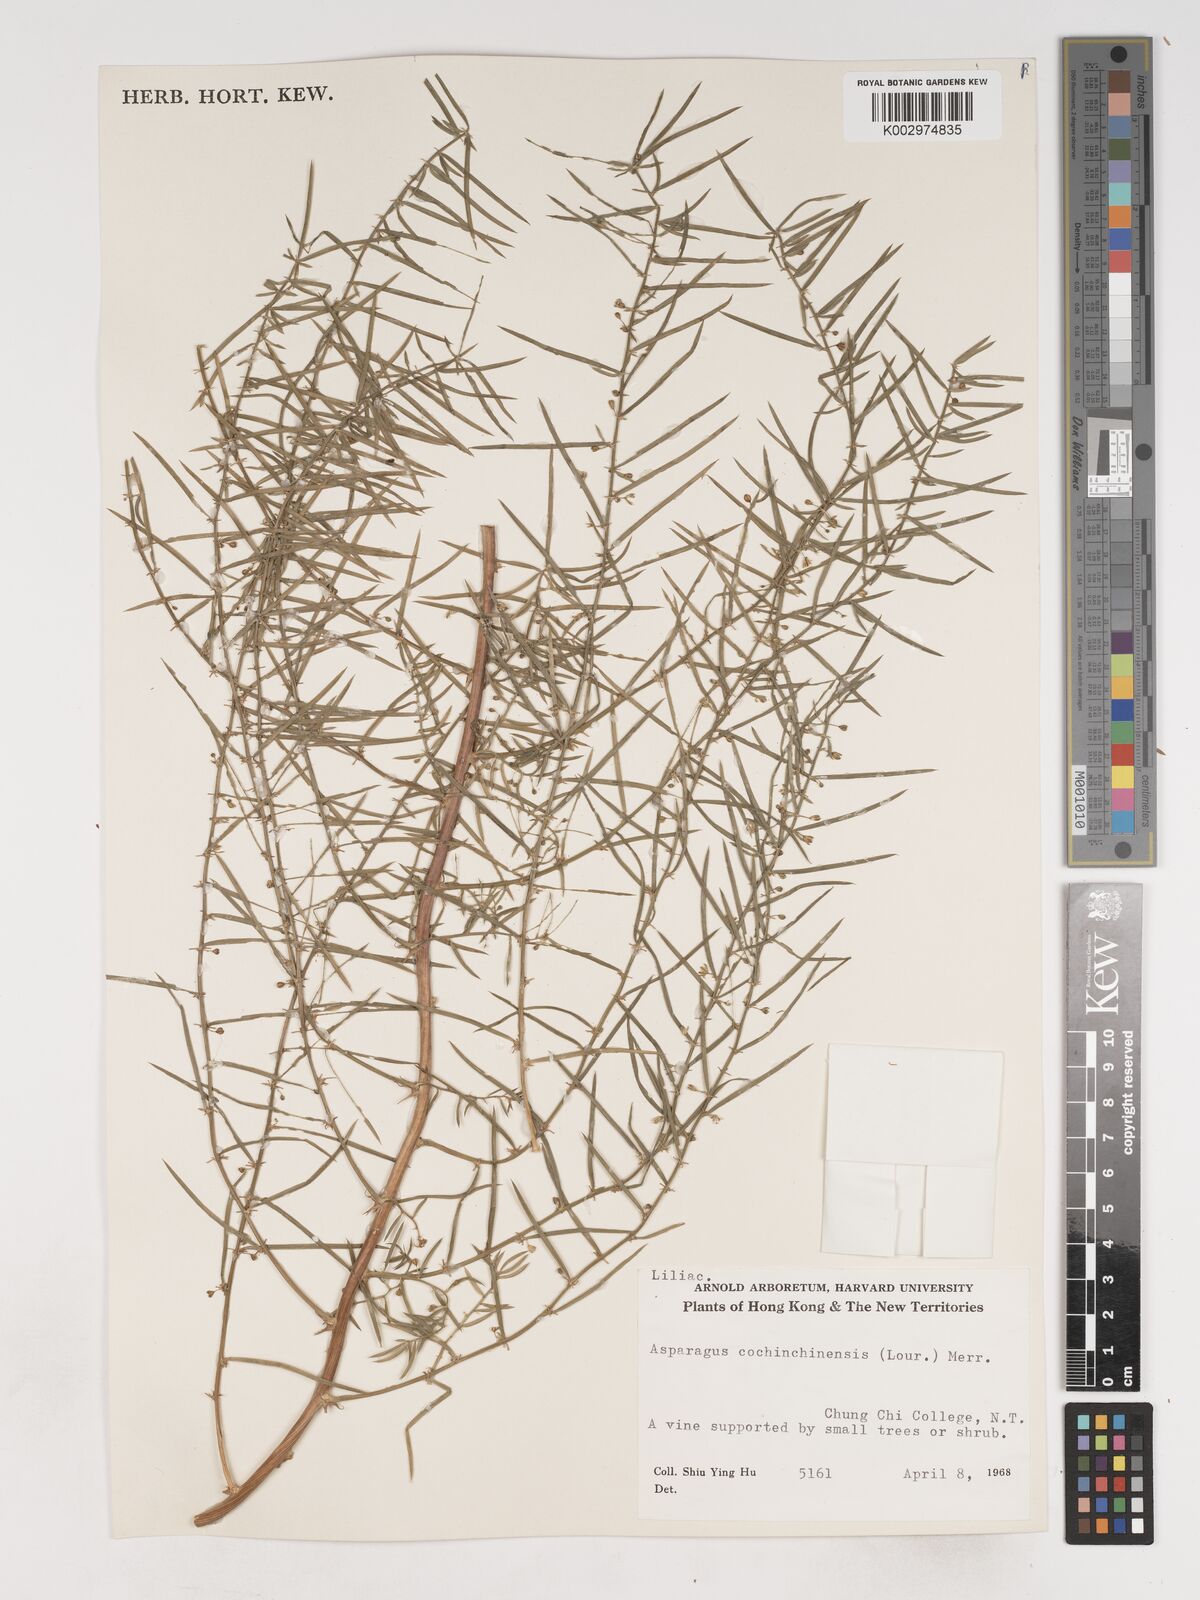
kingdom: Plantae
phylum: Tracheophyta
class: Liliopsida
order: Asparagales
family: Asparagaceae
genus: Asparagus
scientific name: Asparagus cochinchinensis
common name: Chinese asparagus
